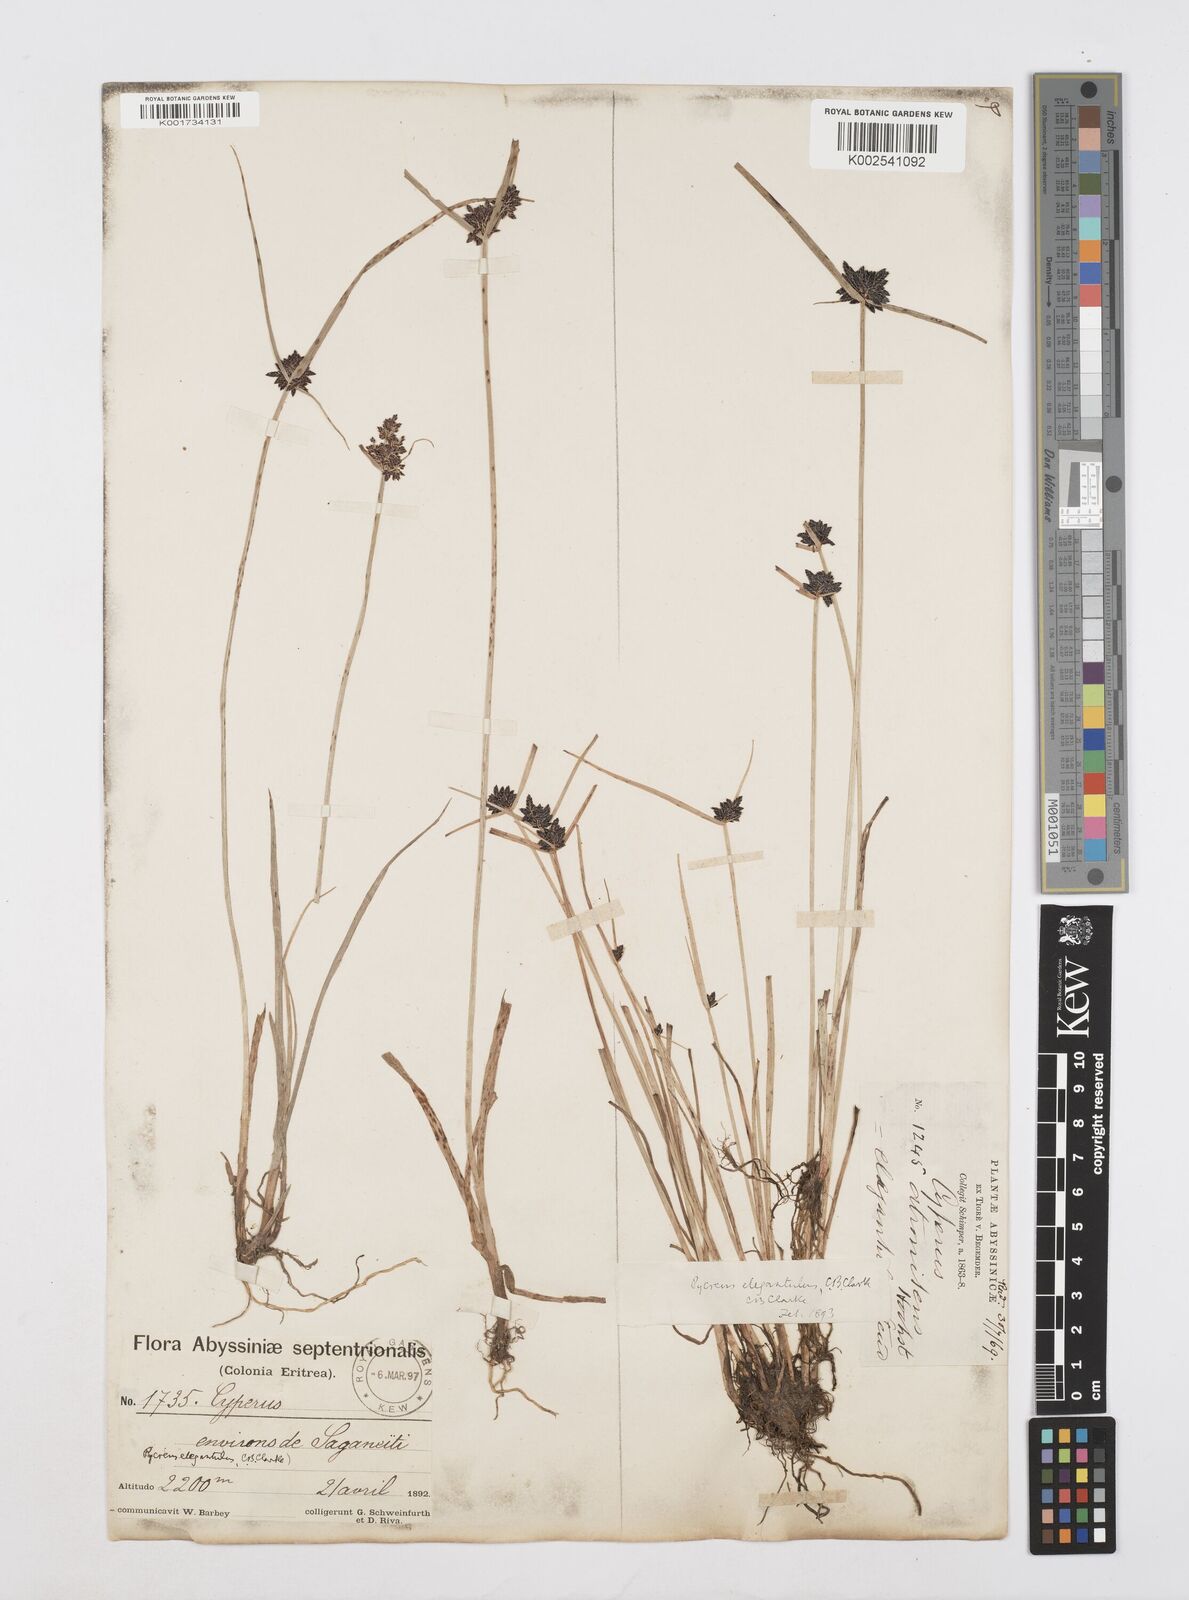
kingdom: Plantae
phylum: Tracheophyta
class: Liliopsida
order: Poales
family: Cyperaceae
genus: Cyperus
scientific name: Cyperus elegantulus
